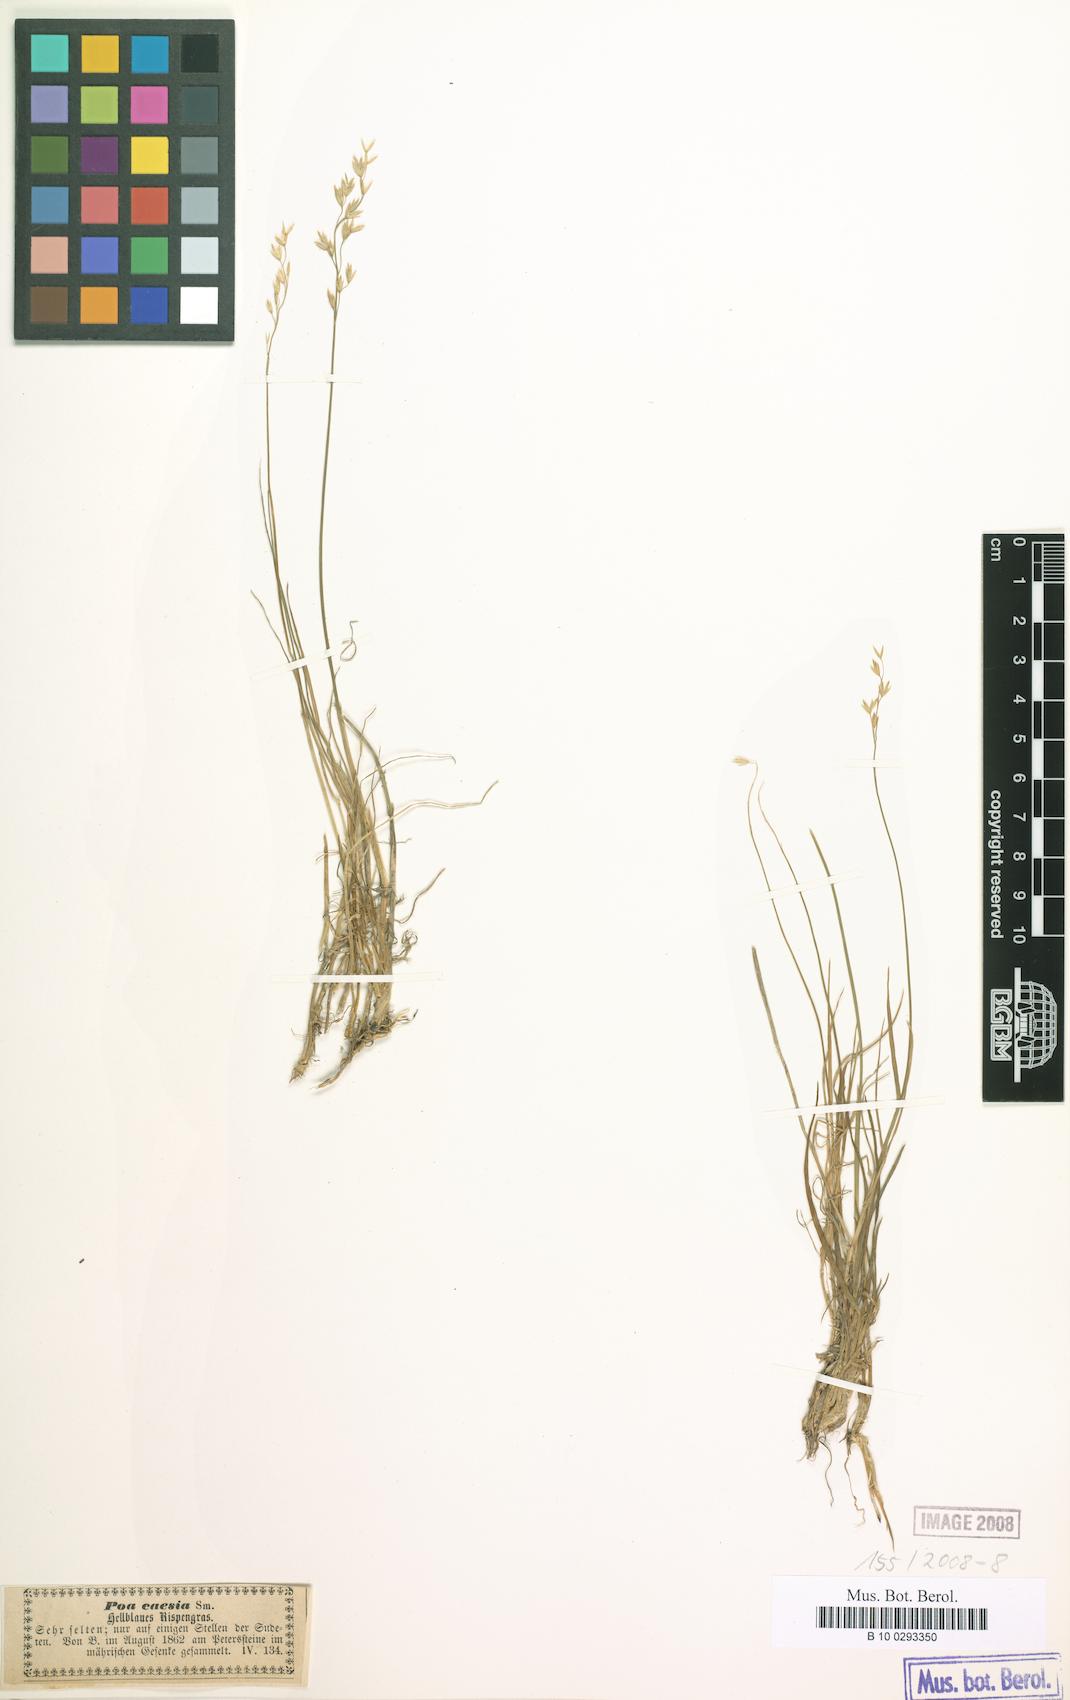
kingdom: Plantae
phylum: Tracheophyta
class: Liliopsida
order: Poales
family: Poaceae
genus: Poa
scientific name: Poa glauca
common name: Glaucous bluegrass
